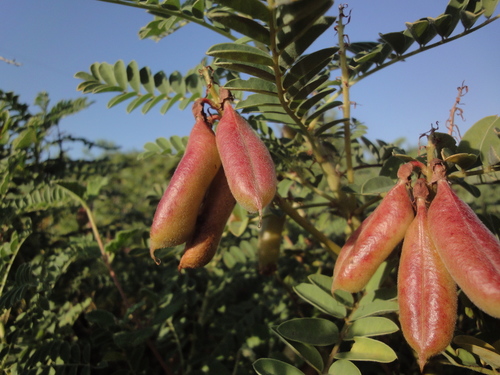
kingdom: Plantae
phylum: Tracheophyta
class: Magnoliopsida
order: Fabales
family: Fabaceae
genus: Erophaca
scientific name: Erophaca baetica
